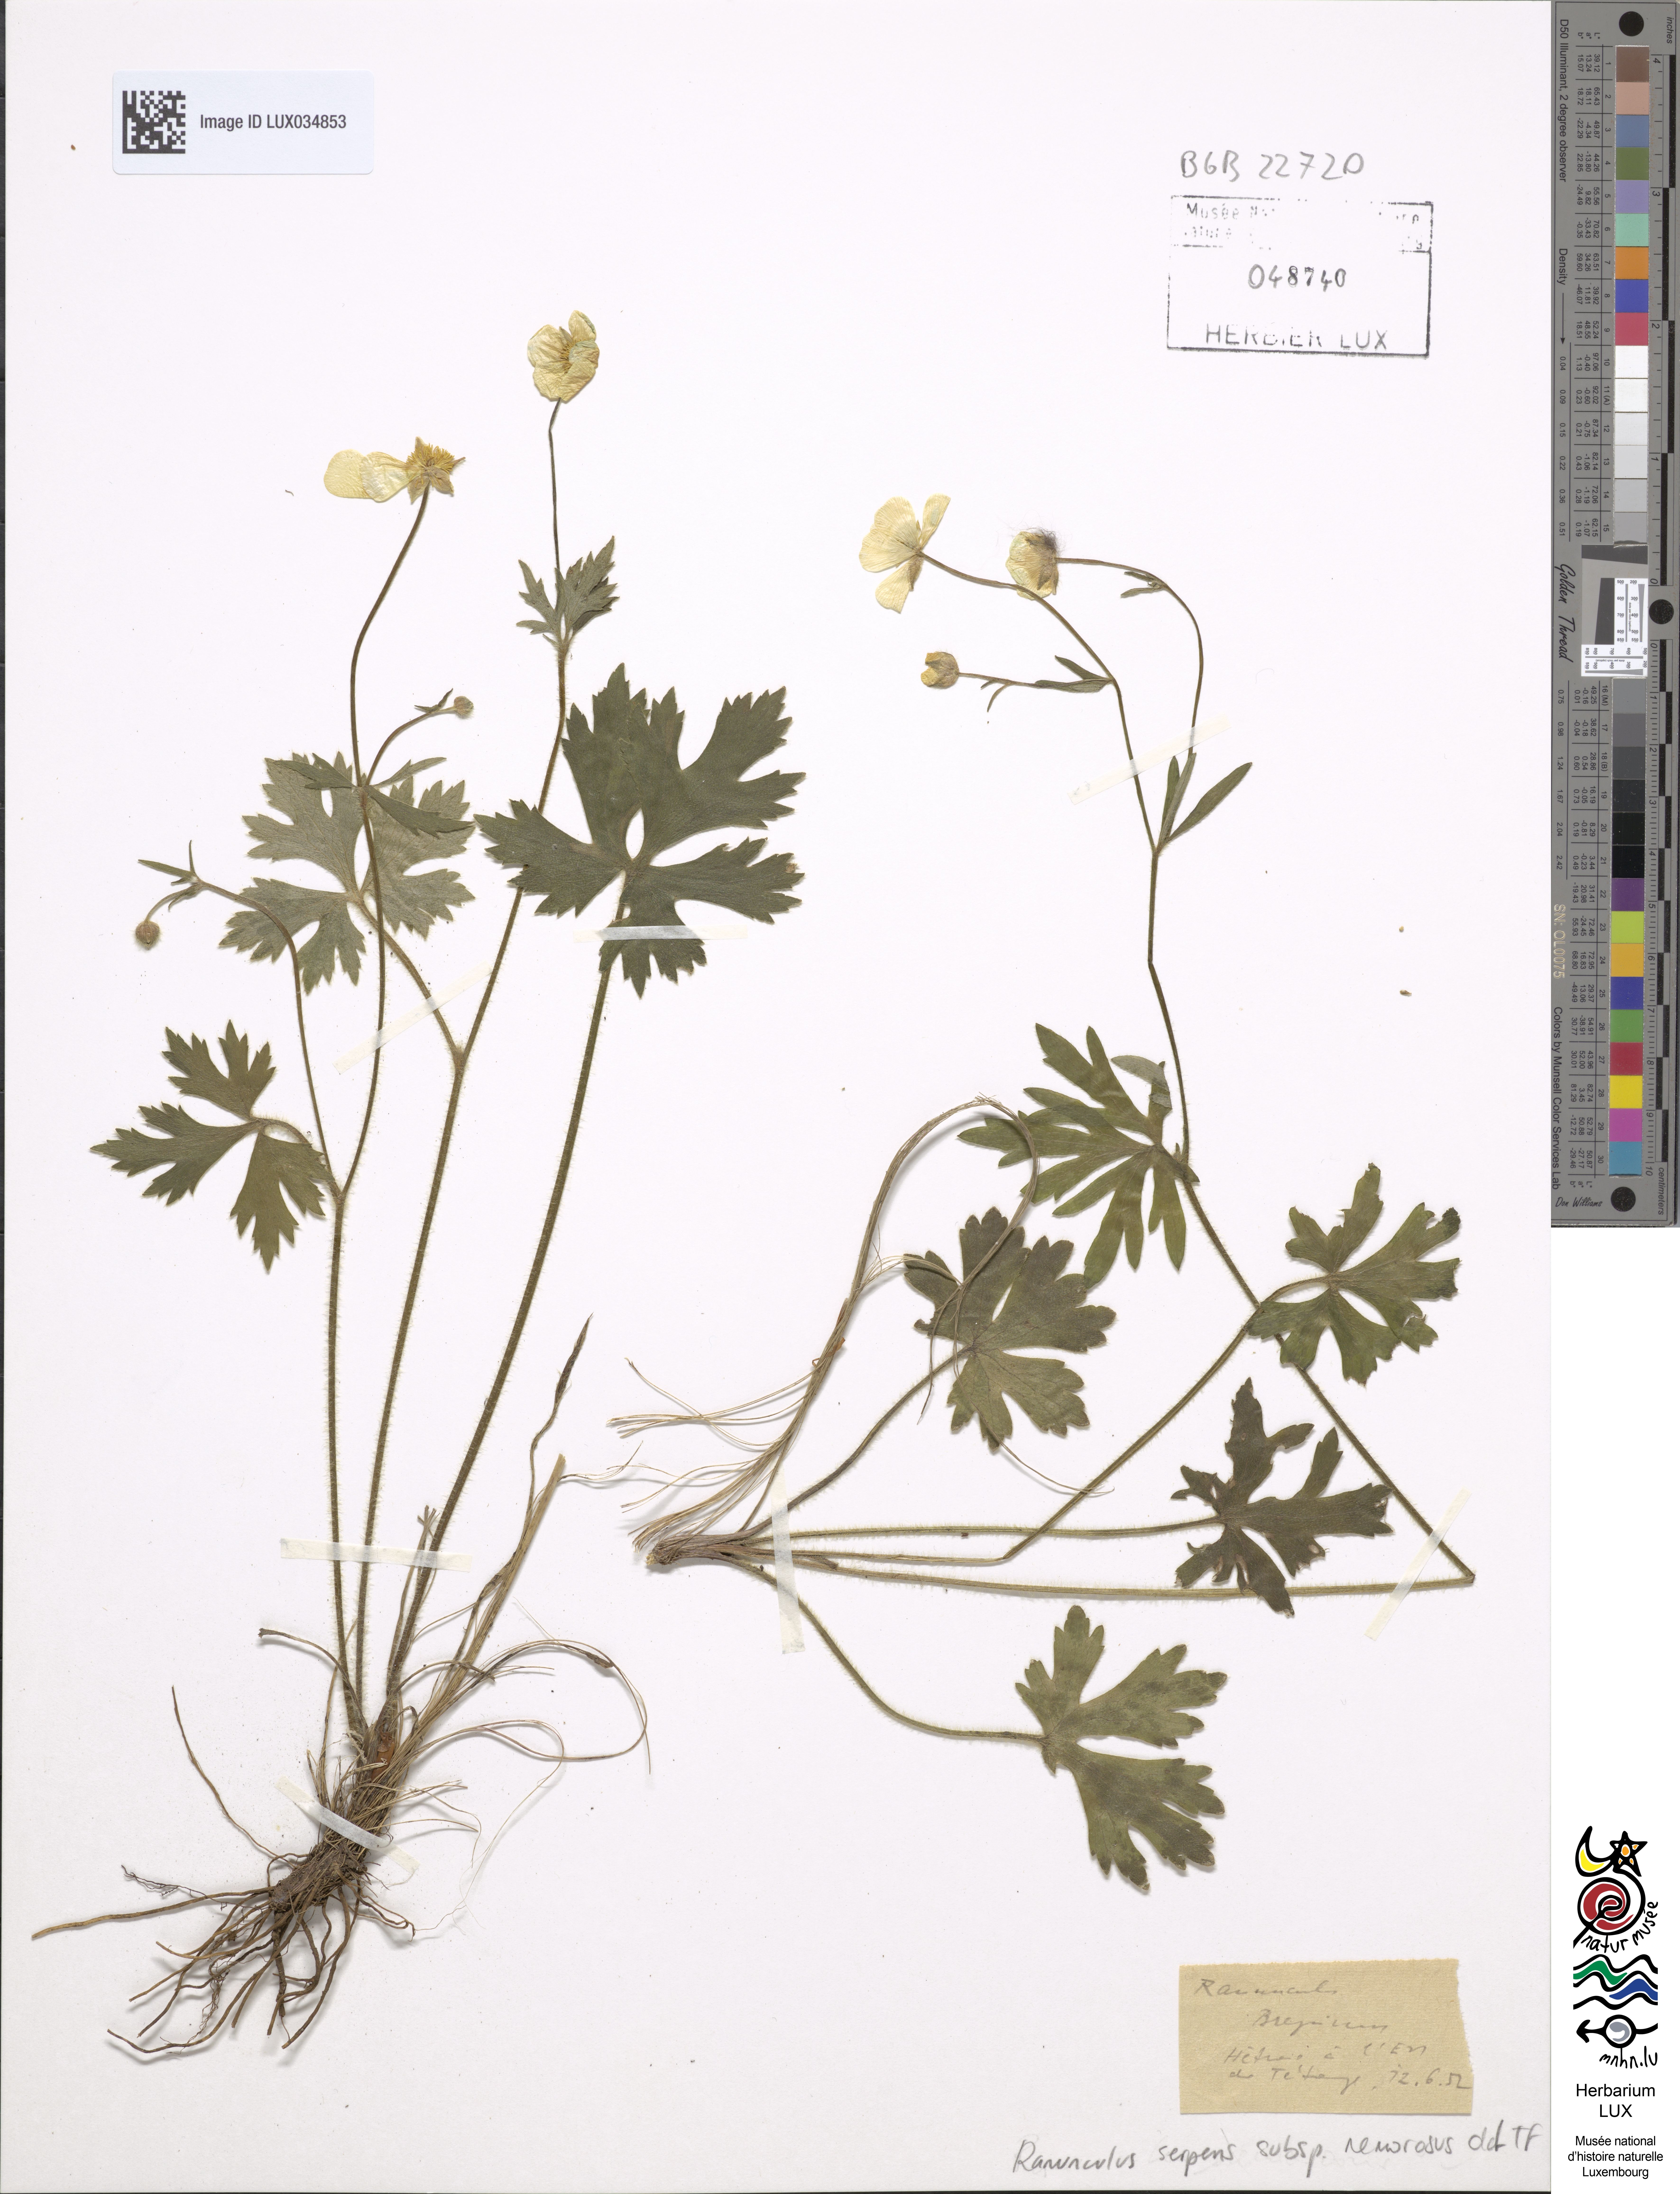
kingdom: Plantae
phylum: Tracheophyta
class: Magnoliopsida
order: Ranunculales
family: Ranunculaceae
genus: Ranunculus
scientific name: Ranunculus polyanthemos
